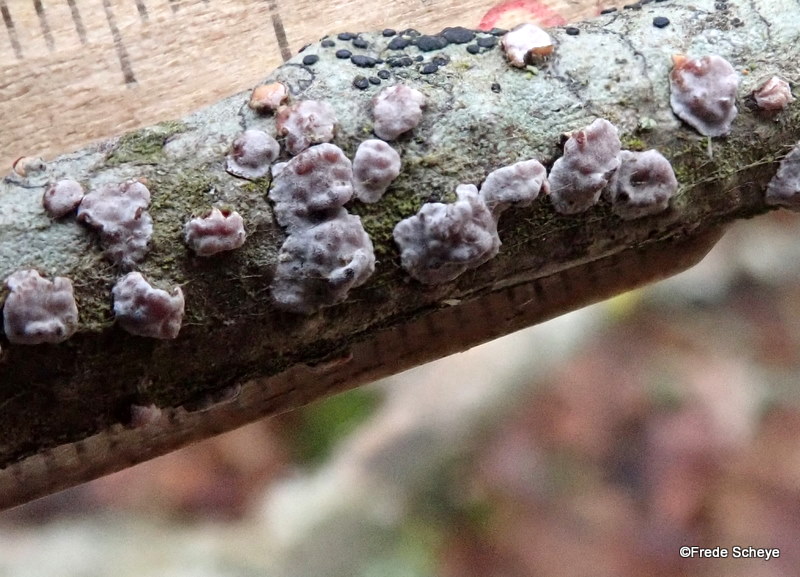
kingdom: Fungi
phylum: Basidiomycota
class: Agaricomycetes
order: Russulales
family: Peniophoraceae
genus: Peniophora
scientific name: Peniophora polygonia
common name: polygon-voksskind
